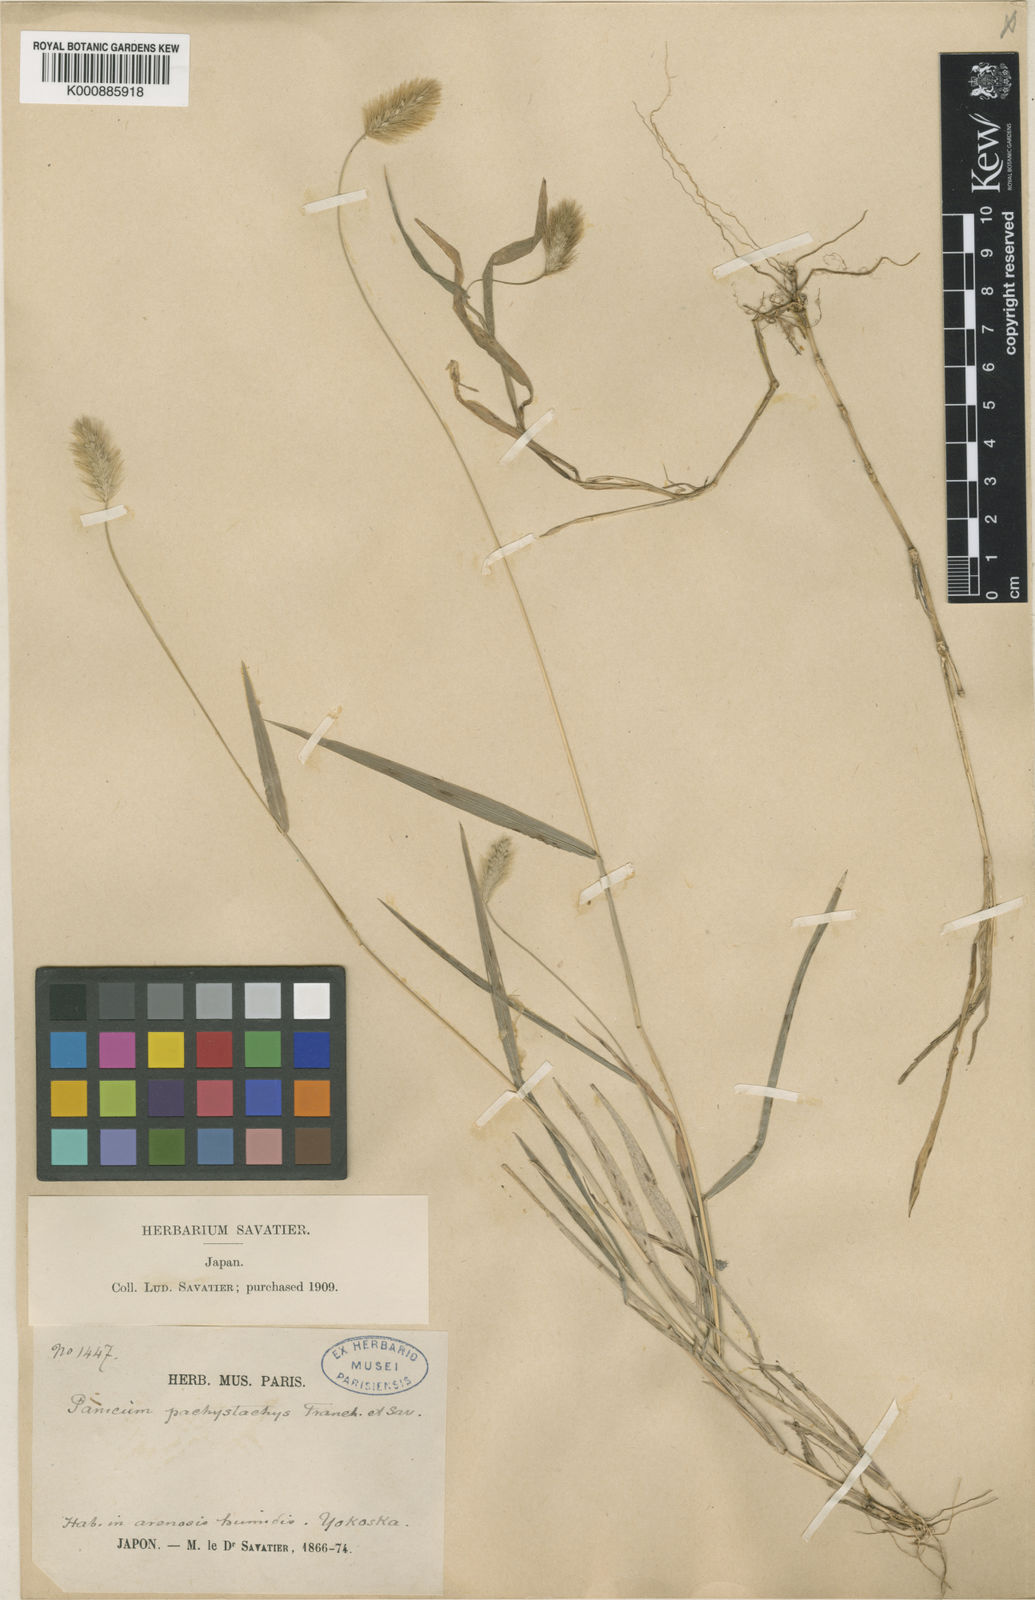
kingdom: Plantae
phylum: Tracheophyta
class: Liliopsida
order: Poales
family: Poaceae
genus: Setaria
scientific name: Setaria viridis
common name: Green bristlegrass
